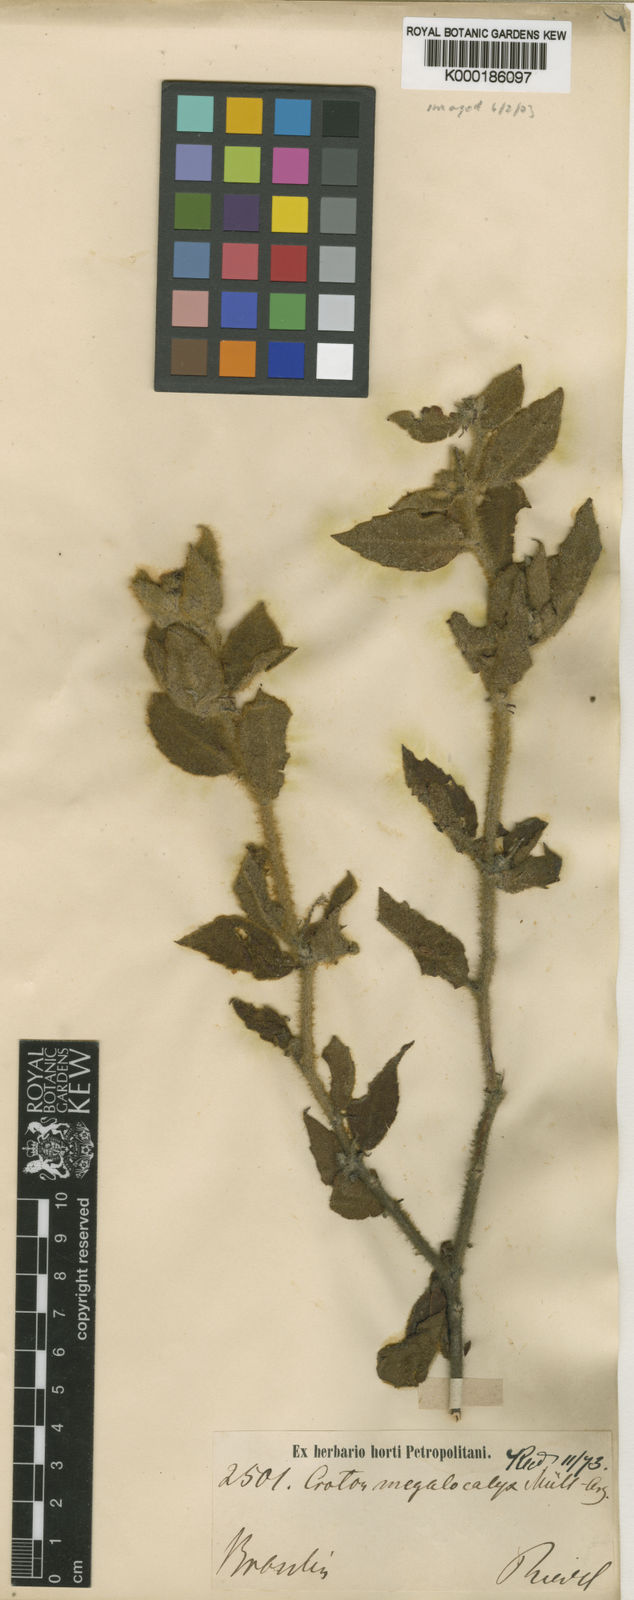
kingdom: Plantae
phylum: Tracheophyta
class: Magnoliopsida
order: Malpighiales
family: Euphorbiaceae
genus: Croton
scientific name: Croton
